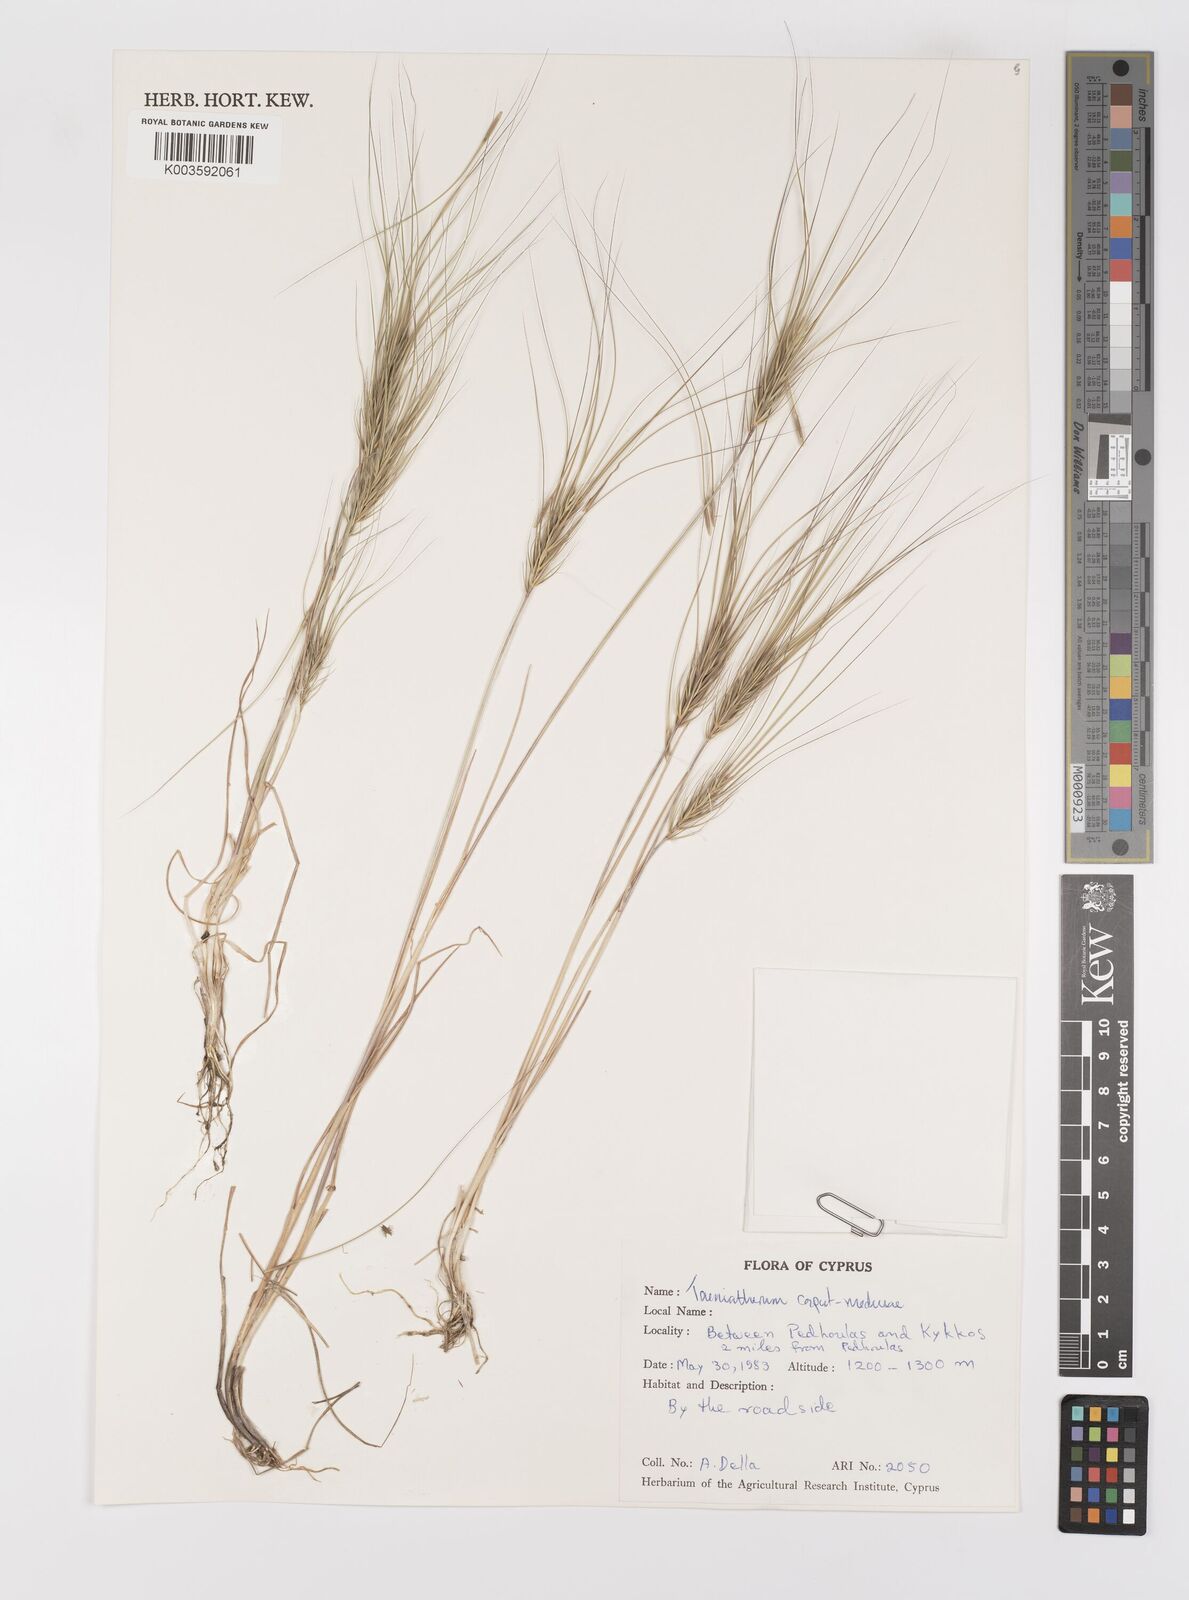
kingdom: Plantae
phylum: Tracheophyta
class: Liliopsida
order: Poales
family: Poaceae
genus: Taeniatherum
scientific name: Taeniatherum caput-medusae
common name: Medusahead
